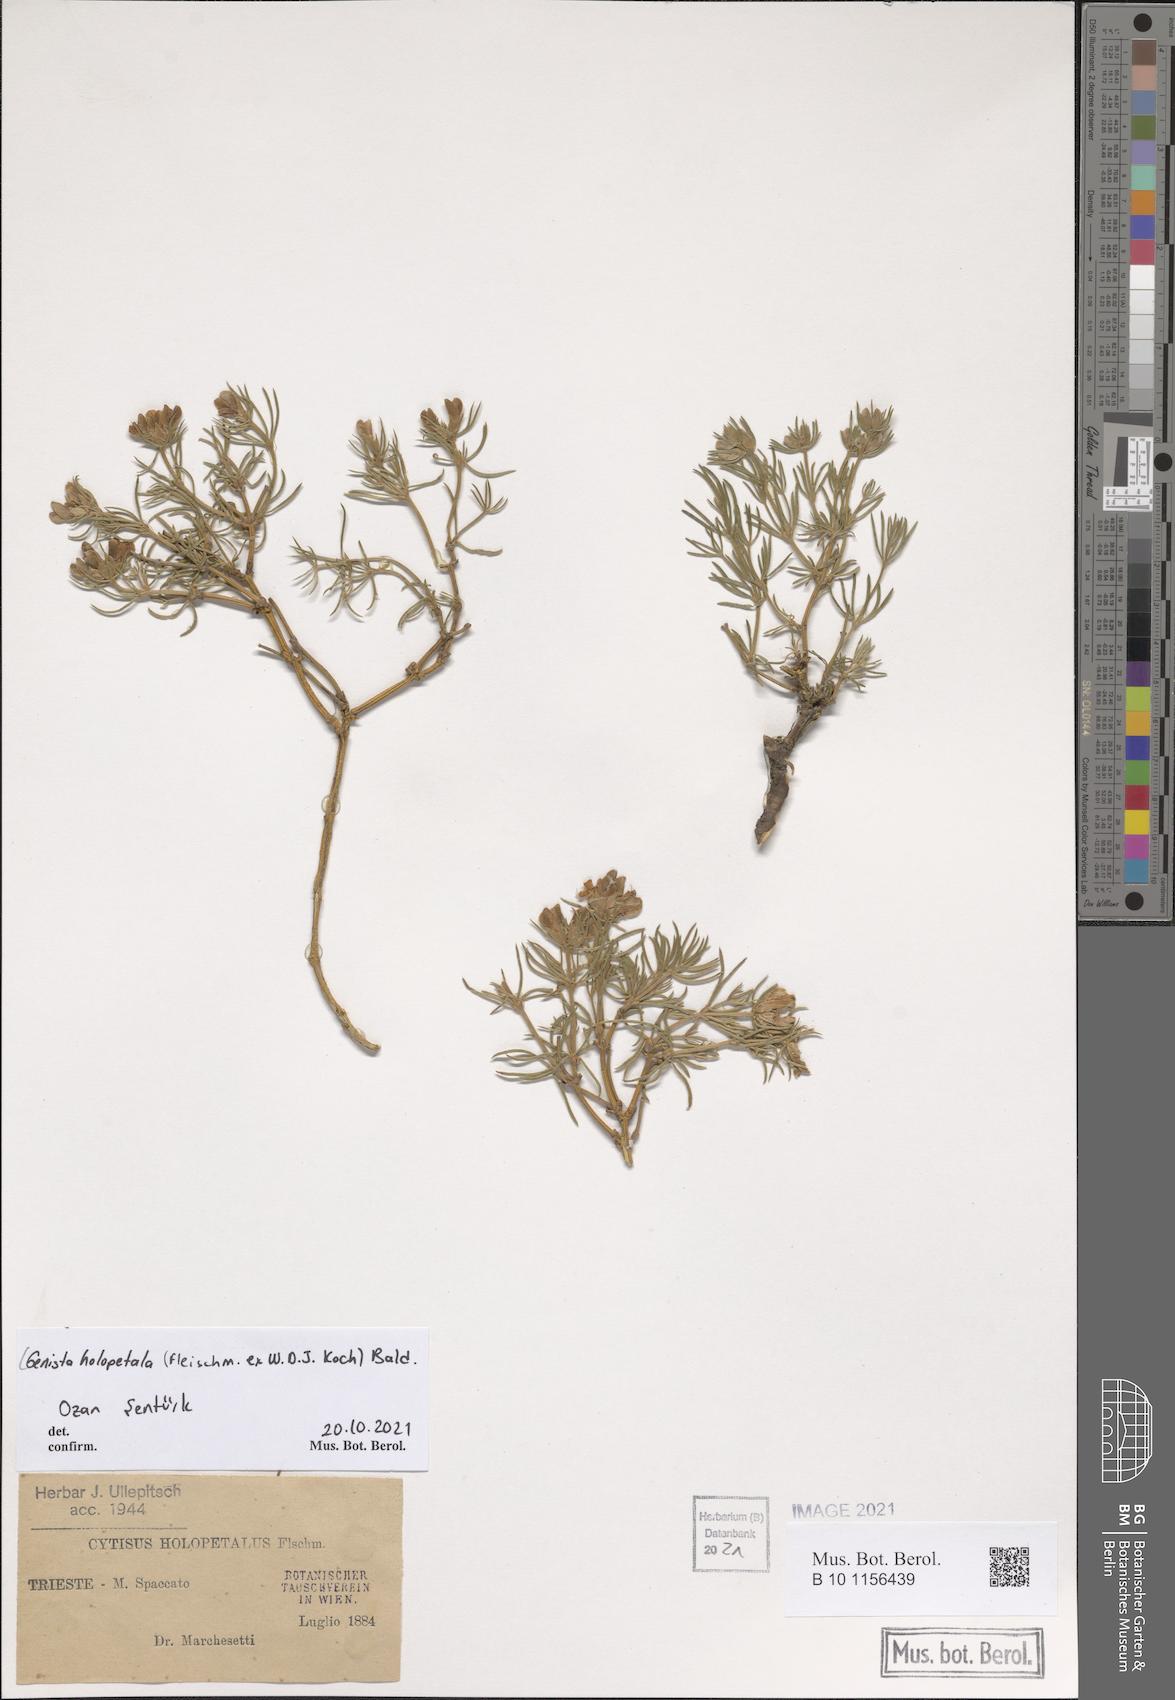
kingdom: Plantae
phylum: Tracheophyta
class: Magnoliopsida
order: Fabales
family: Fabaceae
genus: Genista
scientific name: Genista holopetala
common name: Entire-petalled gorse
